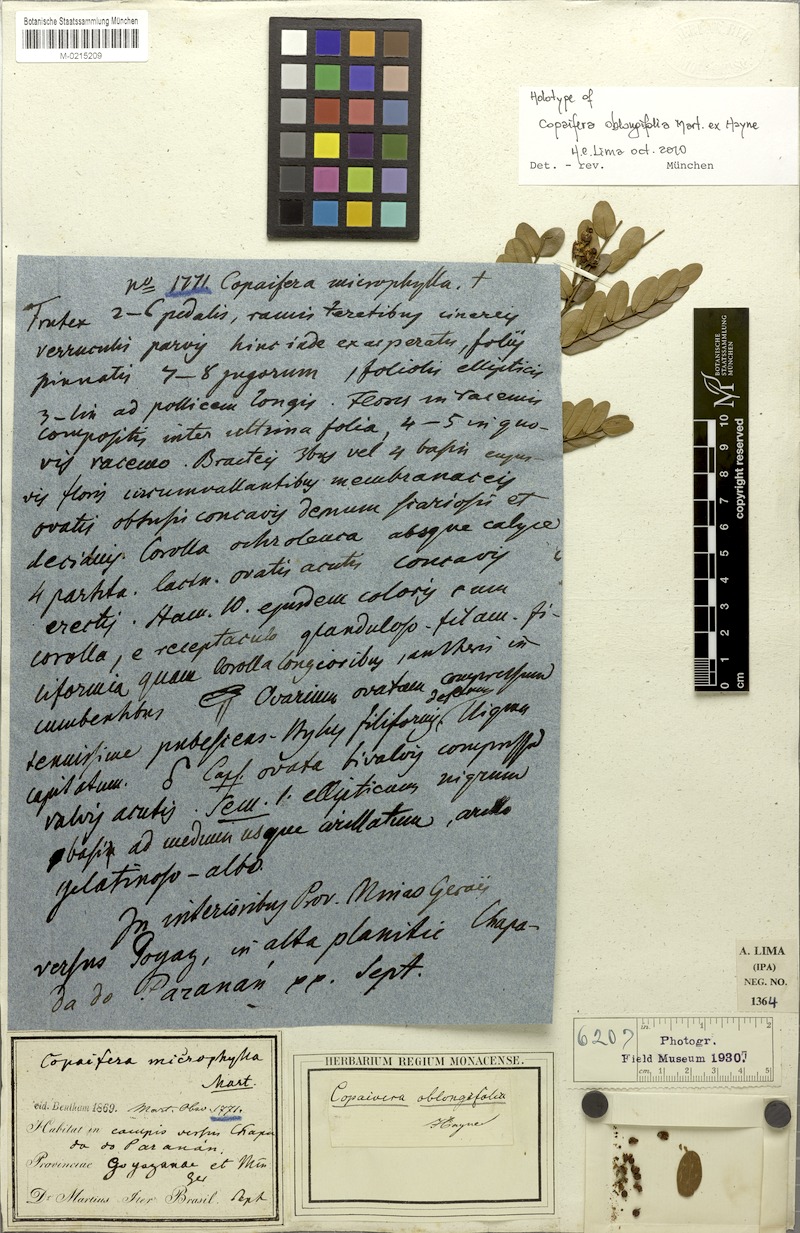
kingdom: Plantae
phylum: Tracheophyta
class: Magnoliopsida
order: Fabales
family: Fabaceae
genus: Copaifera
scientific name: Copaifera
